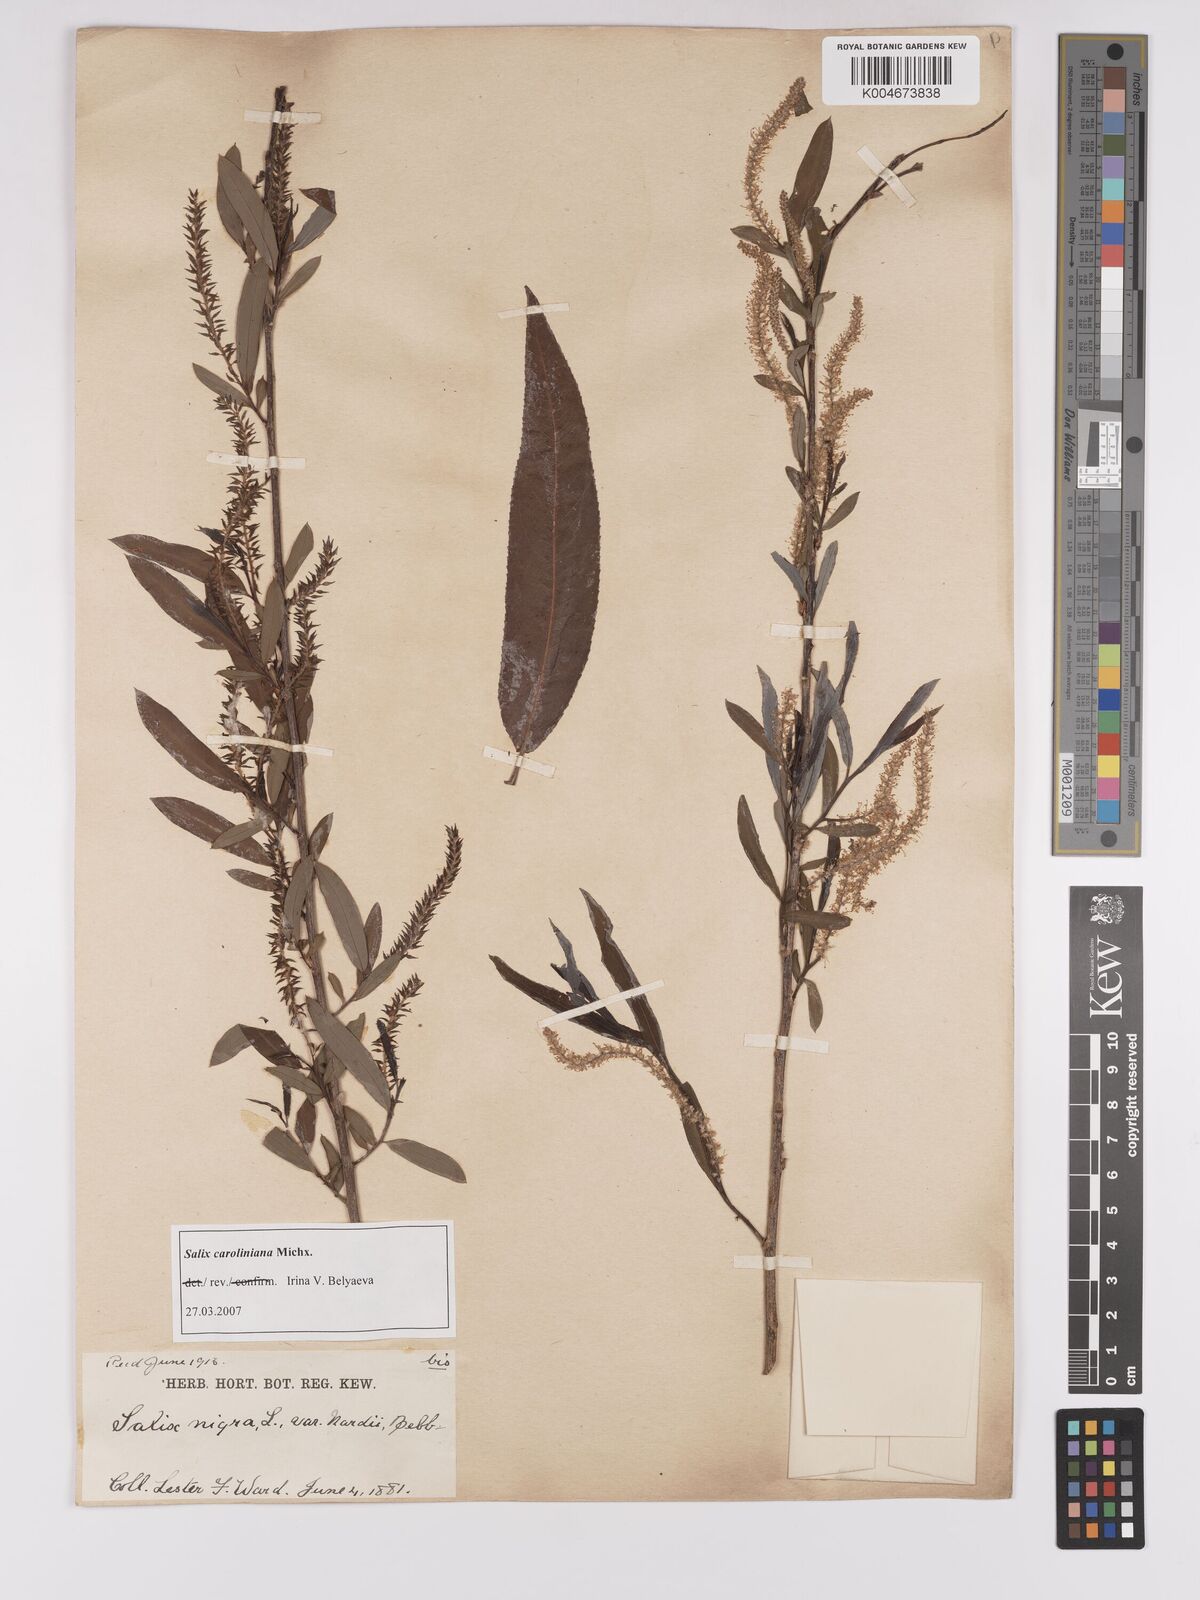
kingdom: Plantae
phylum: Tracheophyta
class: Magnoliopsida
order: Malpighiales
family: Salicaceae
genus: Salix
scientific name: Salix caroliniana
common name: Carolina willow
